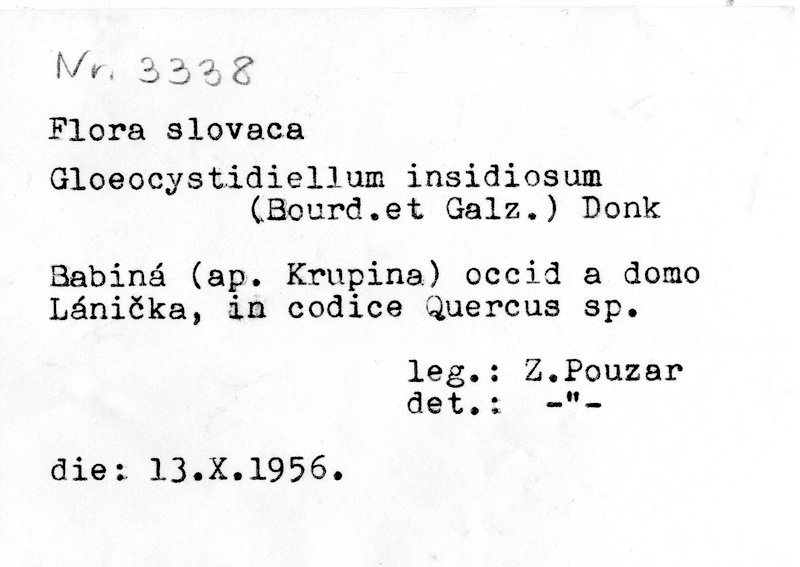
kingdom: Fungi
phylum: Basidiomycota
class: Agaricomycetes
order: Russulales
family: Stereaceae
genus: Conferticium
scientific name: Conferticium insidiosum
